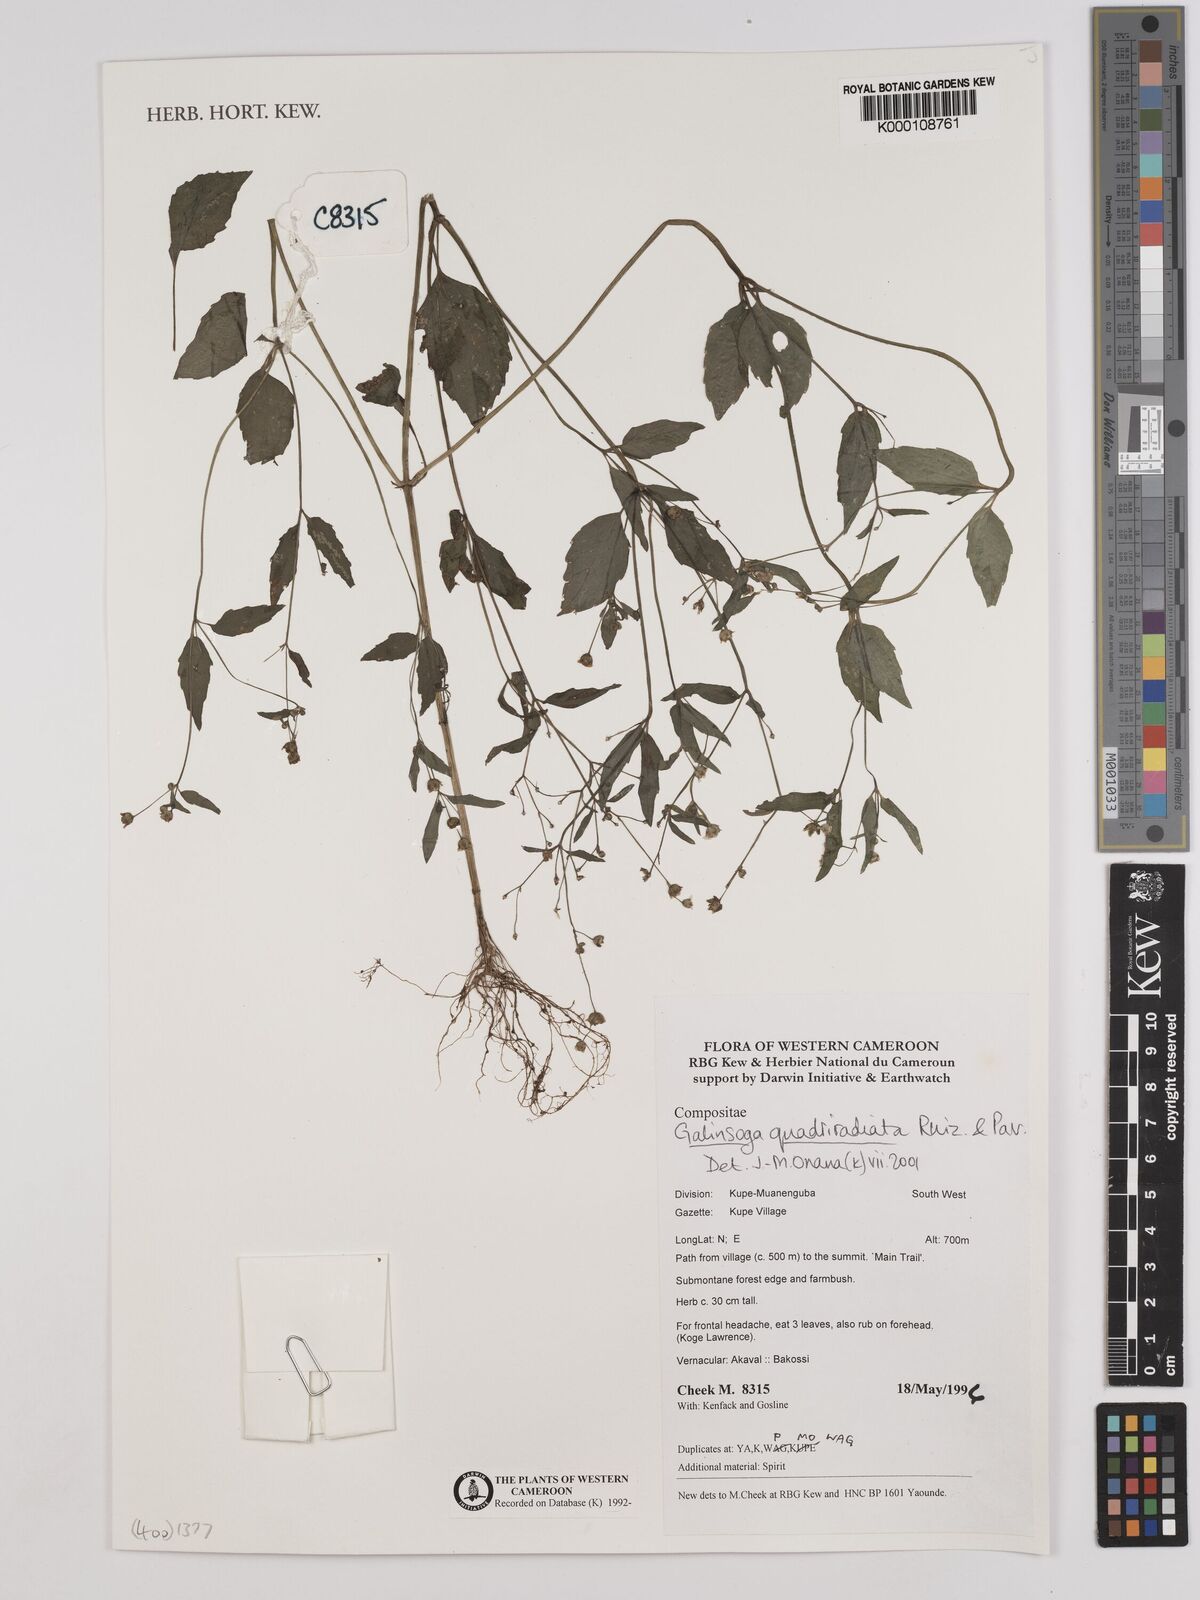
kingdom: Plantae
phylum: Tracheophyta
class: Magnoliopsida
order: Asterales
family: Asteraceae
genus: Galinsoga
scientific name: Galinsoga quadriradiata
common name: Shaggy soldier
